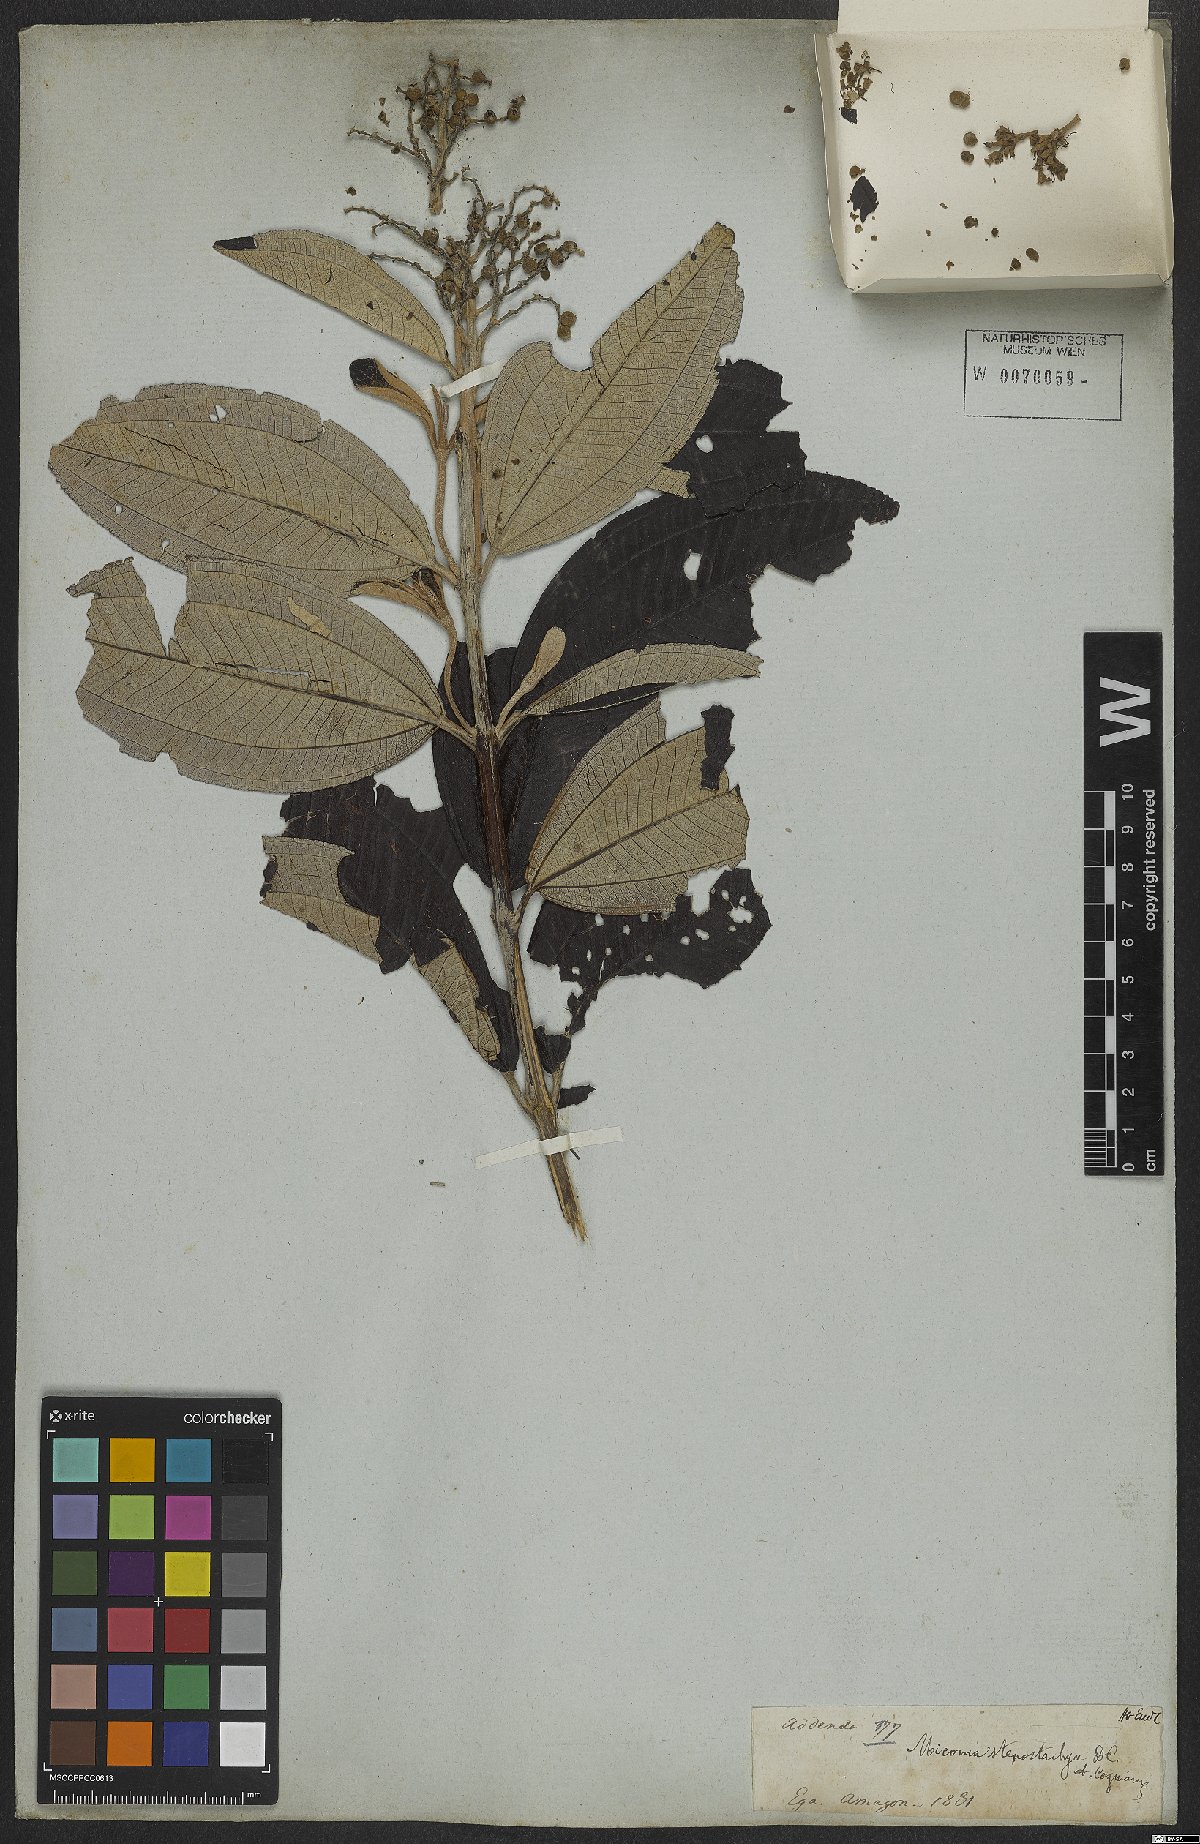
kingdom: Plantae
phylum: Tracheophyta
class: Magnoliopsida
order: Myrtales
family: Melastomataceae
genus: Miconia
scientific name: Miconia stenostachya
